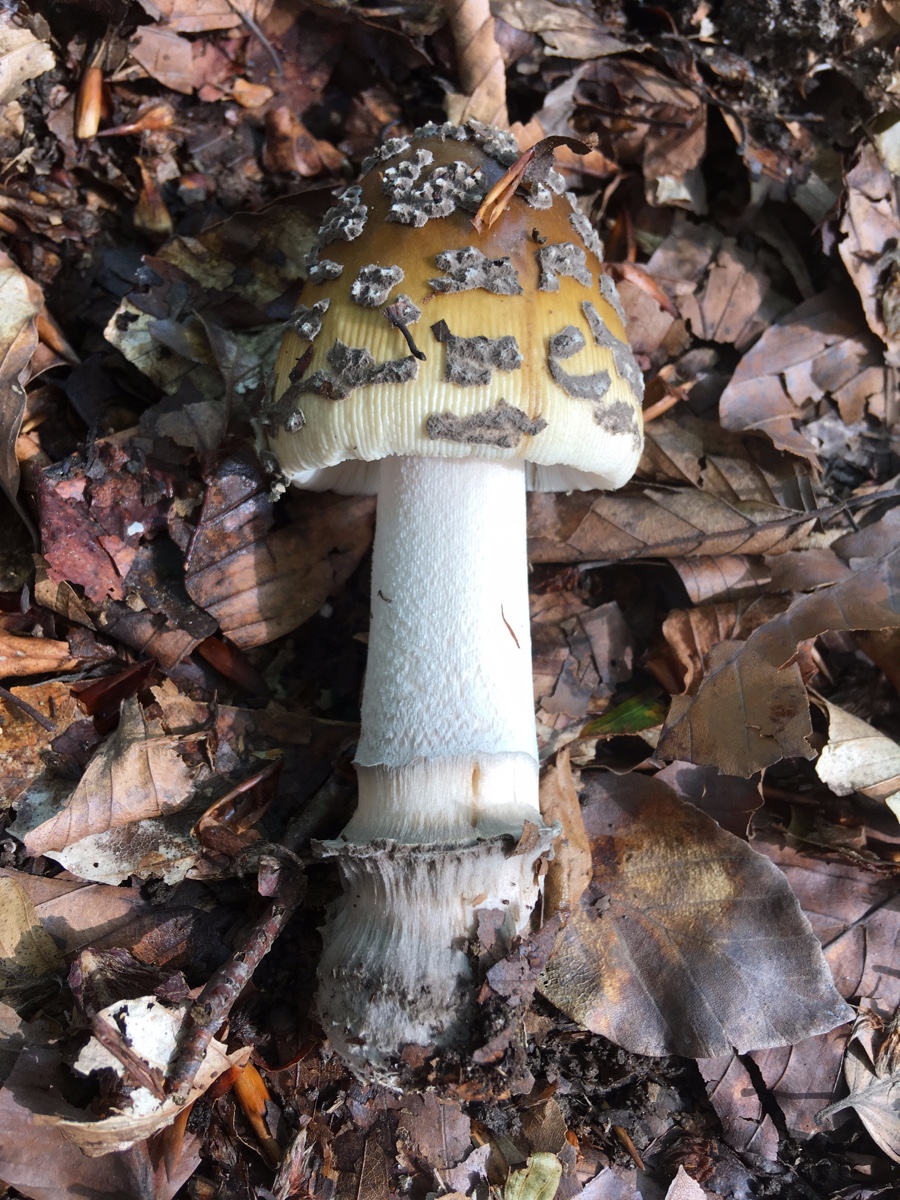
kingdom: Fungi
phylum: Basidiomycota
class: Agaricomycetes
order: Agaricales
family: Amanitaceae
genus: Amanita
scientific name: Amanita
